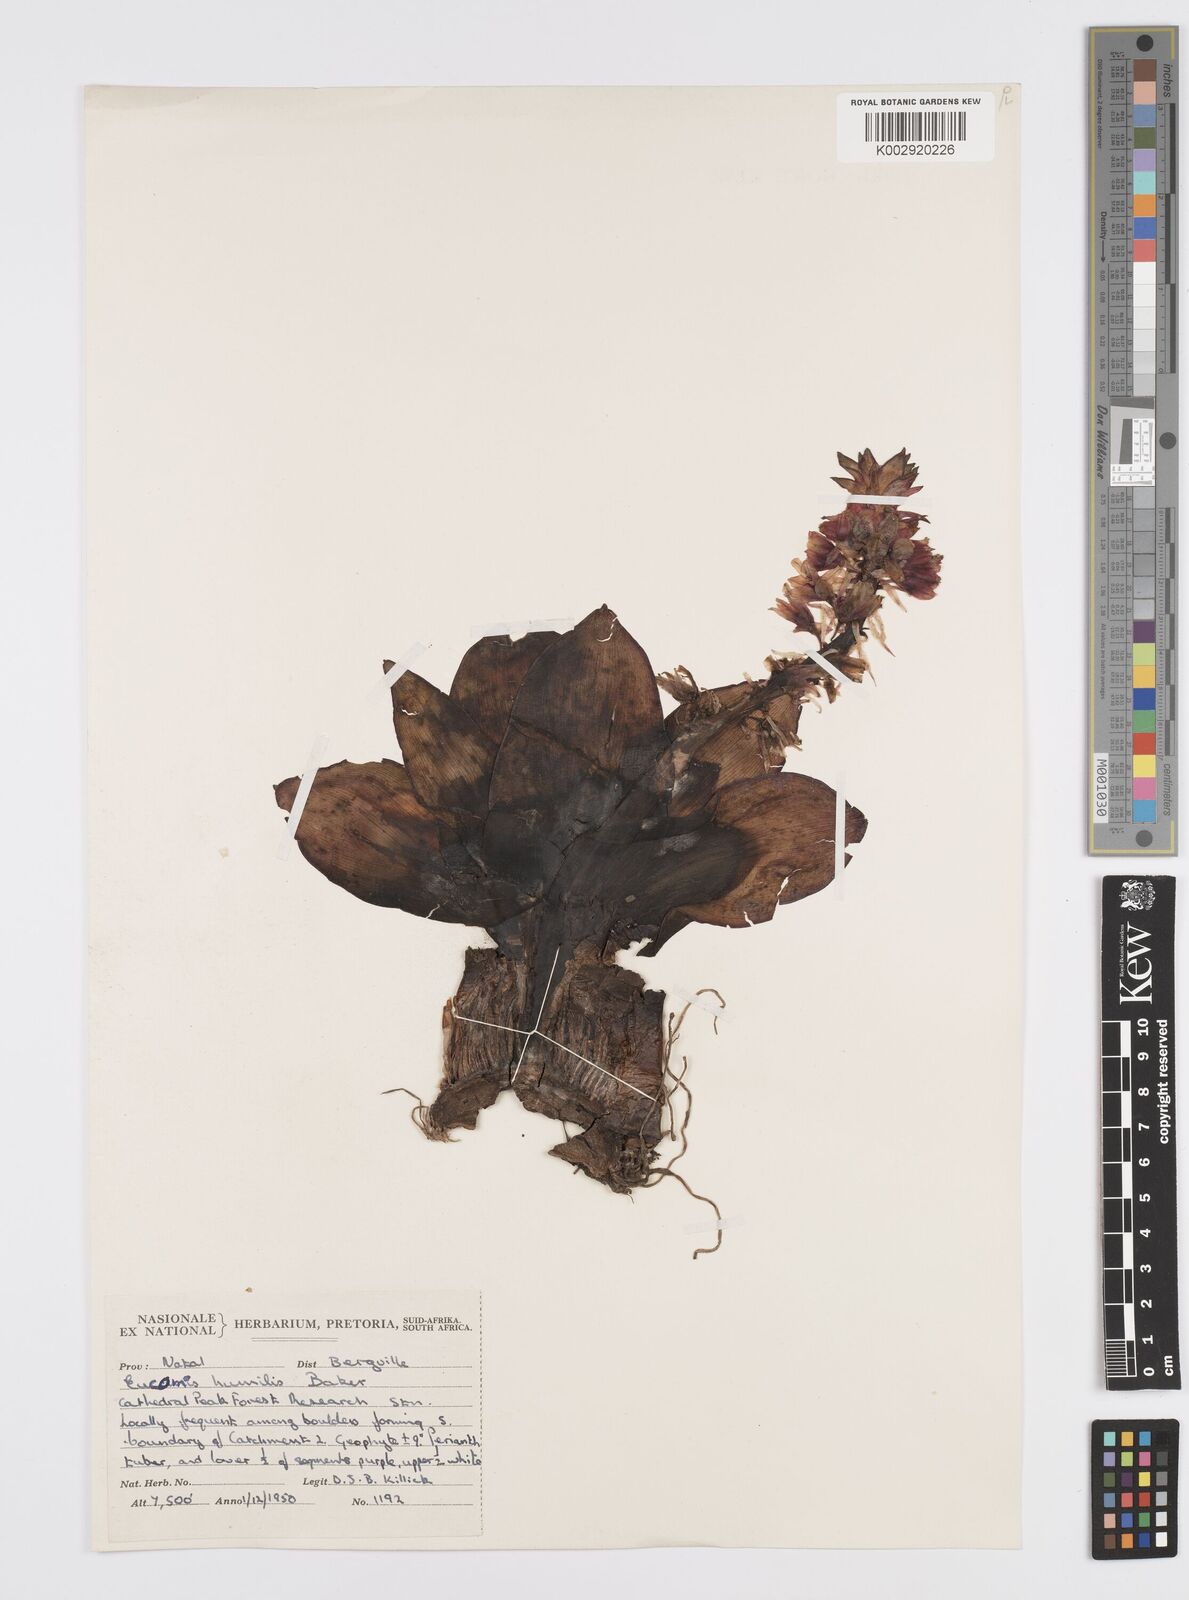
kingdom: Plantae
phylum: Tracheophyta
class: Liliopsida
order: Asparagales
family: Asparagaceae
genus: Eucomis
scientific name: Eucomis schijffii
